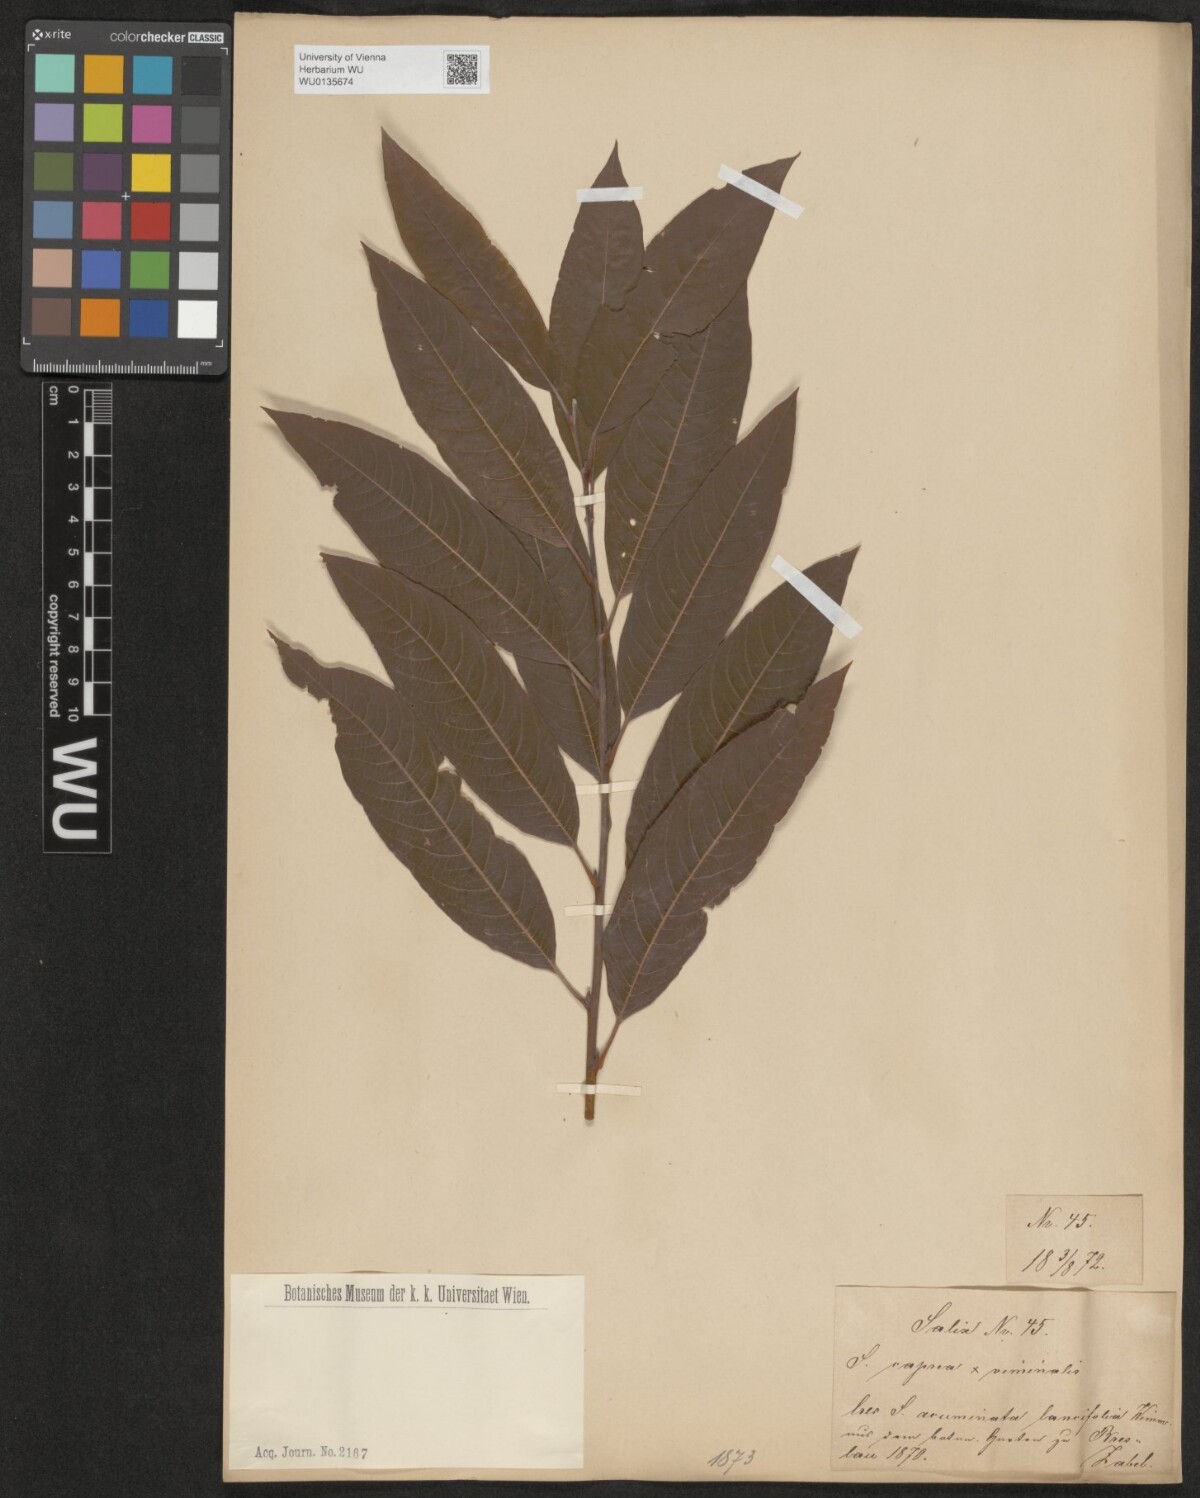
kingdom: Plantae
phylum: Tracheophyta
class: Magnoliopsida
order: Malpighiales
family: Salicaceae
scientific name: Salicaceae
